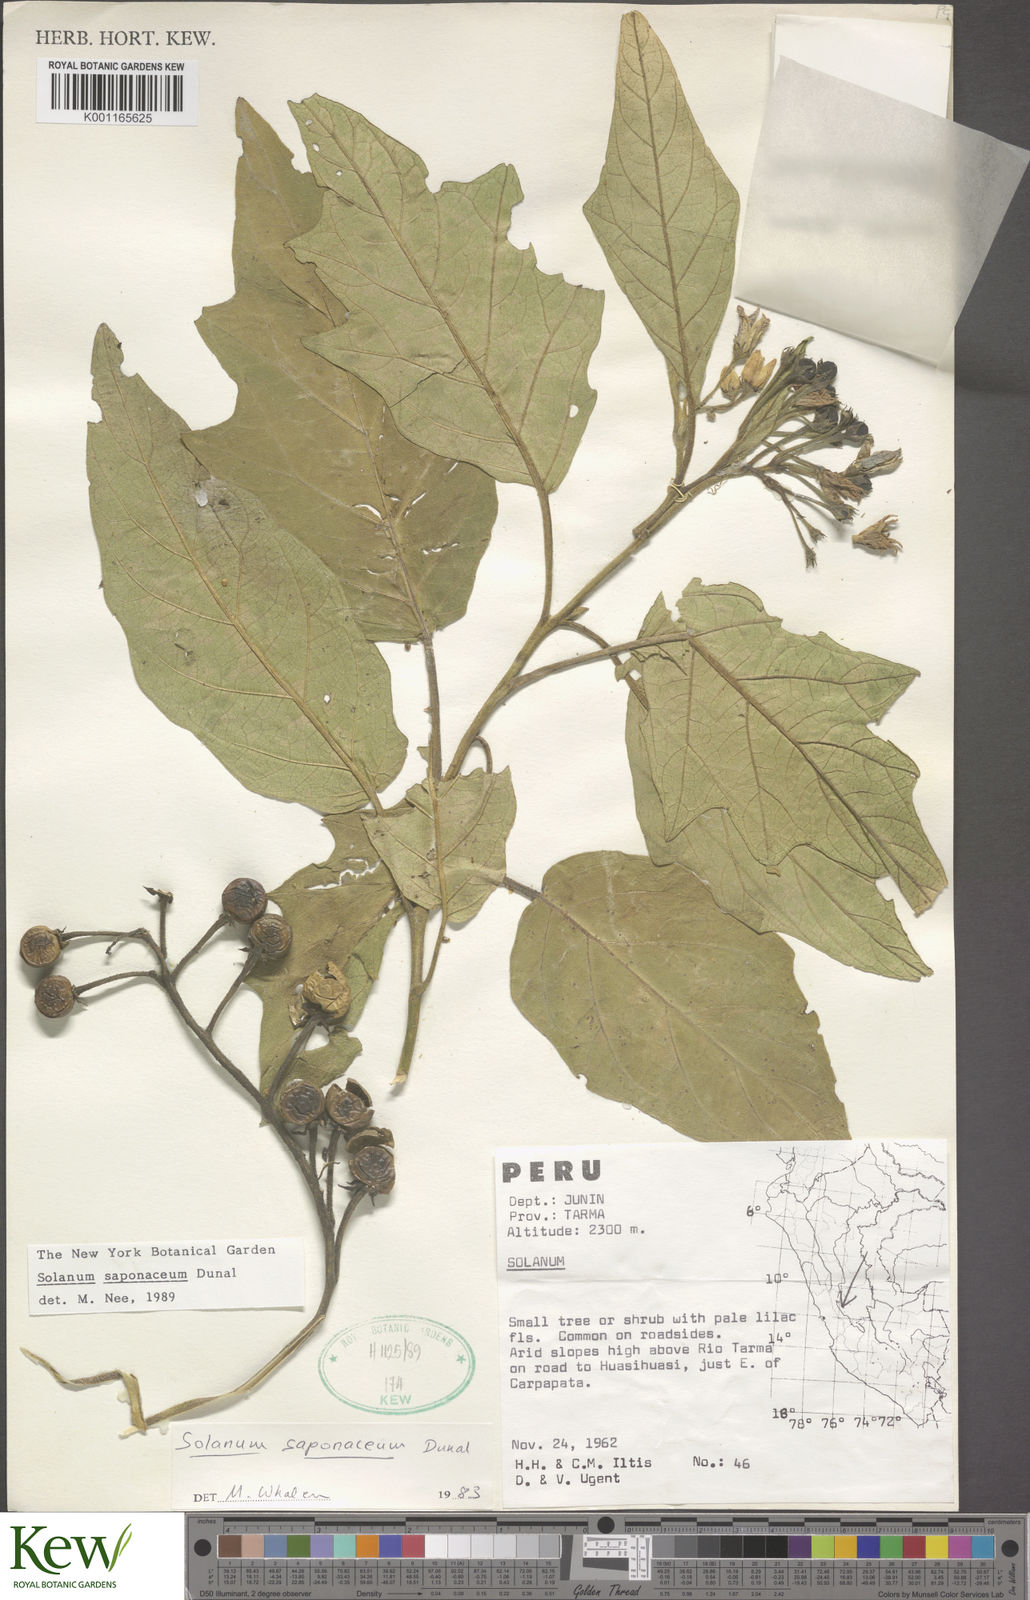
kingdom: Plantae
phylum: Tracheophyta
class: Magnoliopsida
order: Solanales
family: Solanaceae
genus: Solanum
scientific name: Solanum saponaceum
